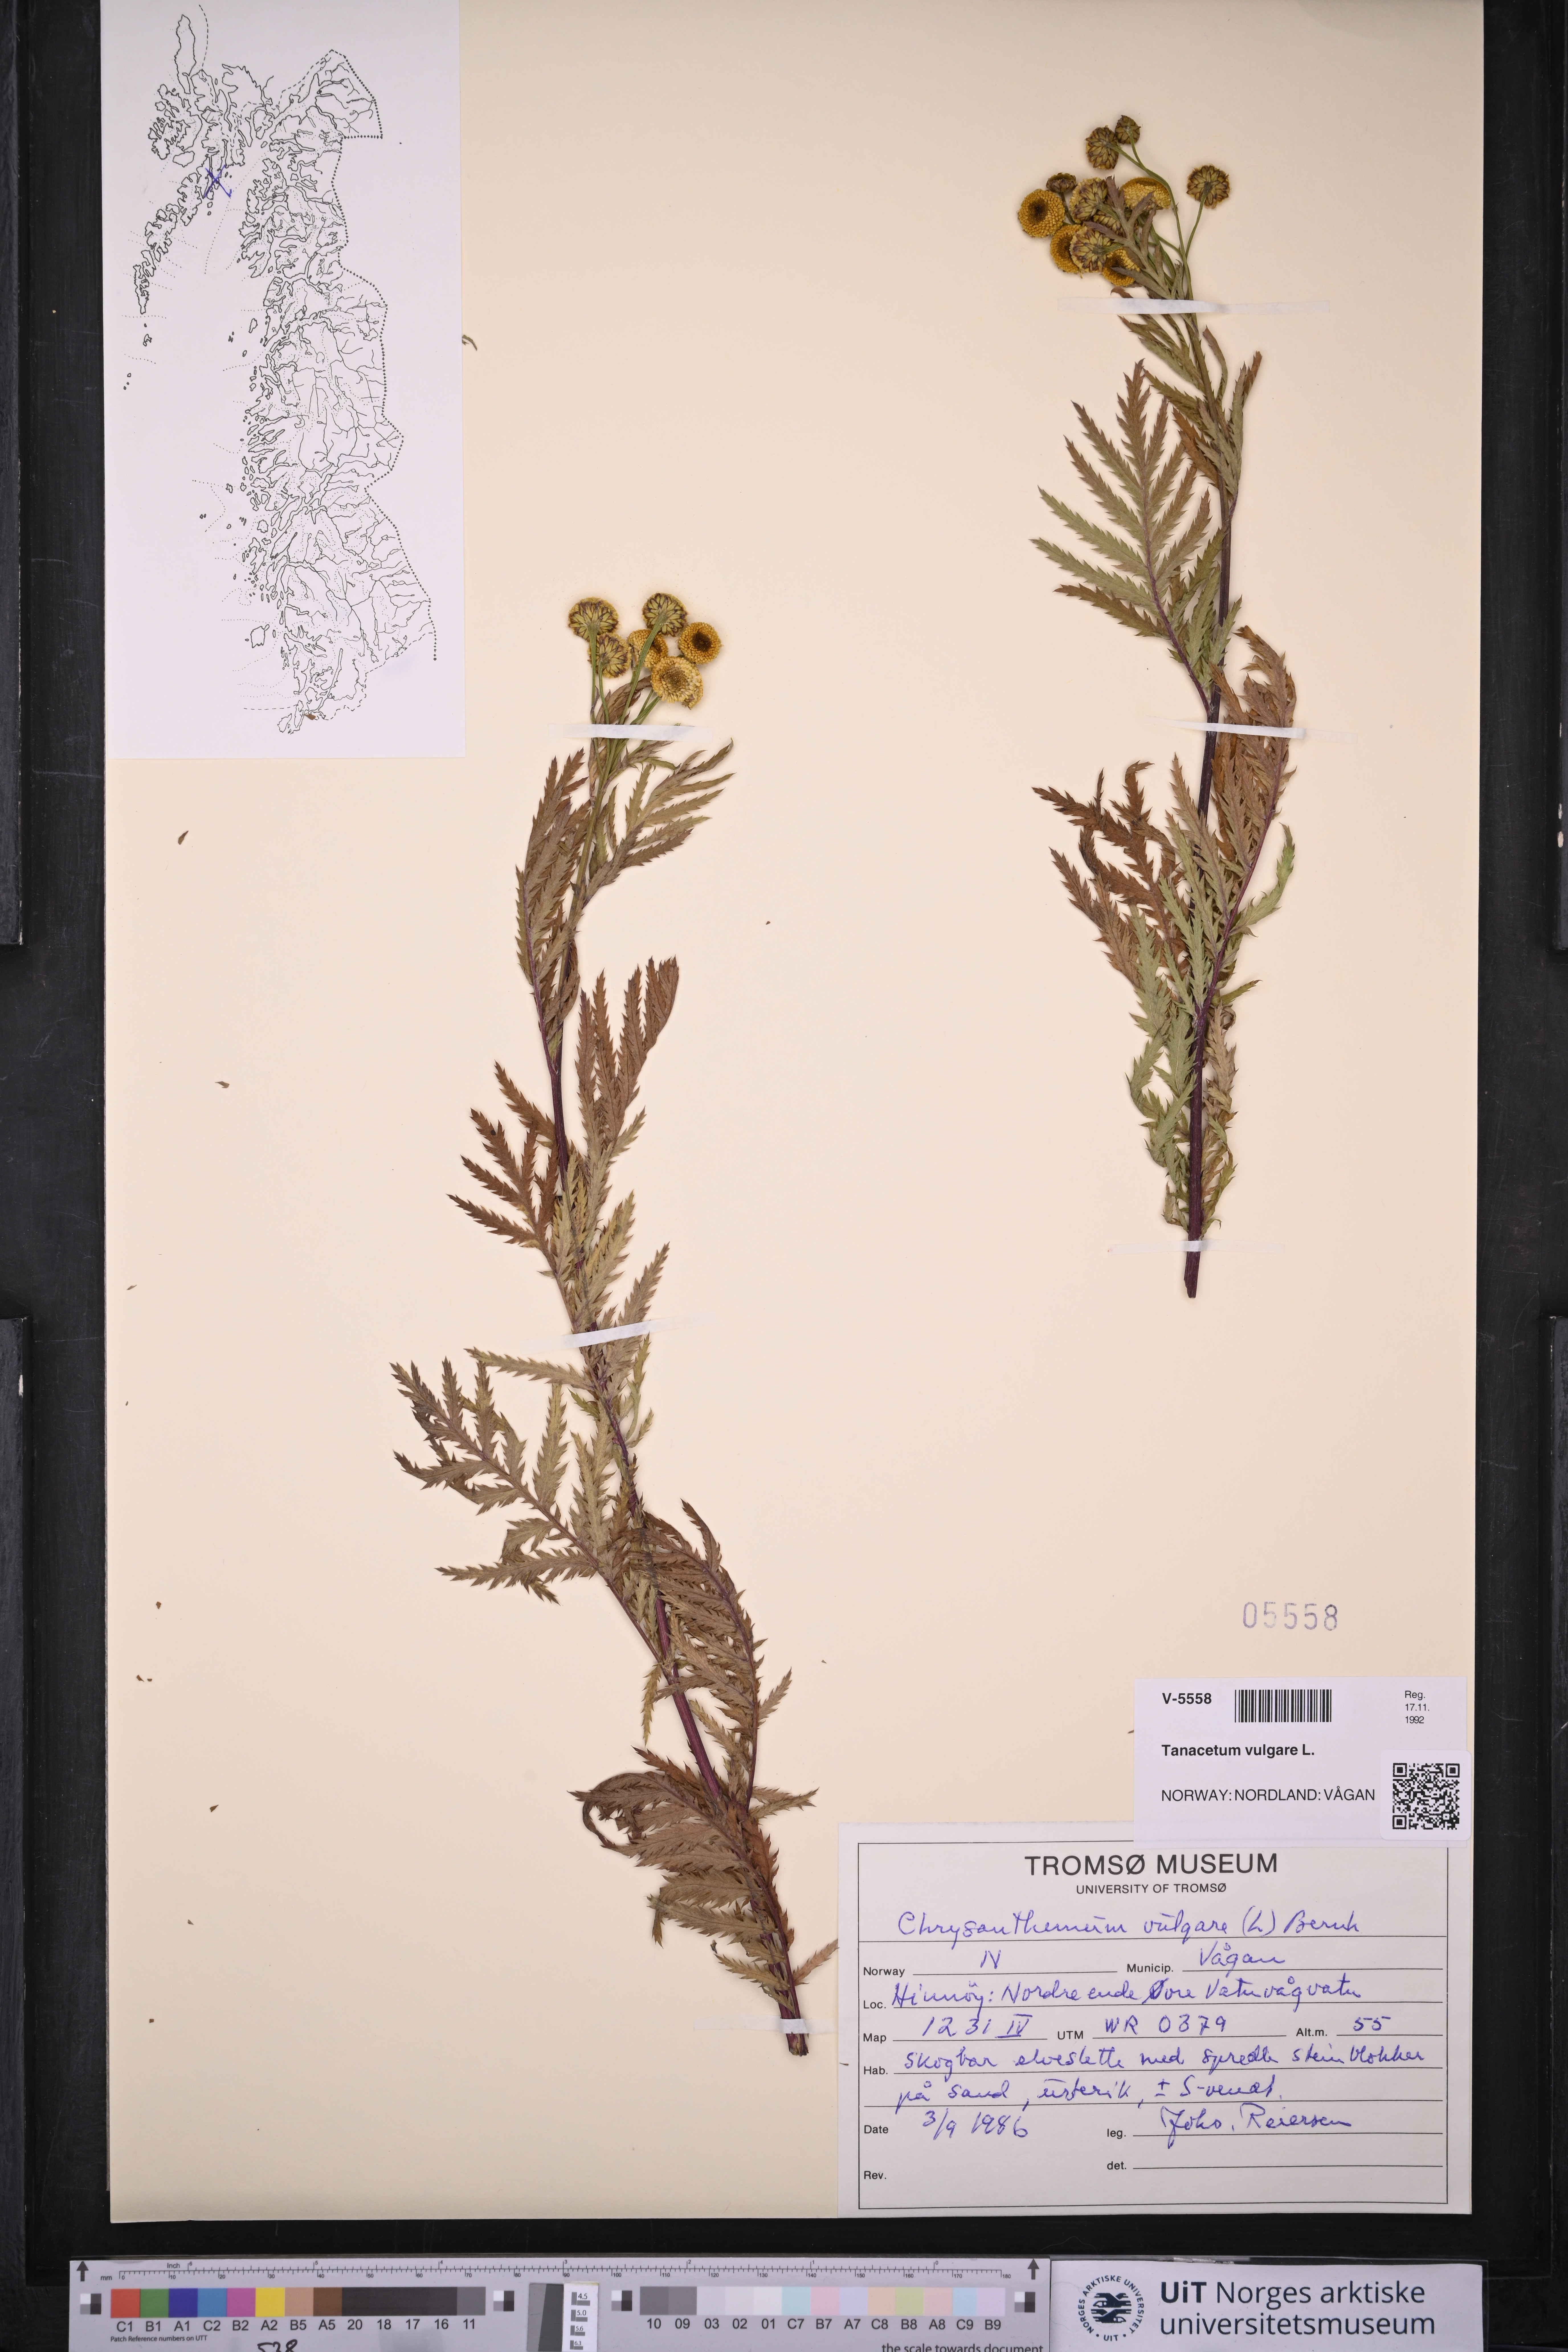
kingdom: Plantae
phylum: Tracheophyta
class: Magnoliopsida
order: Asterales
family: Asteraceae
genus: Tanacetum
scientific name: Tanacetum vulgare
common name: Common tansy
